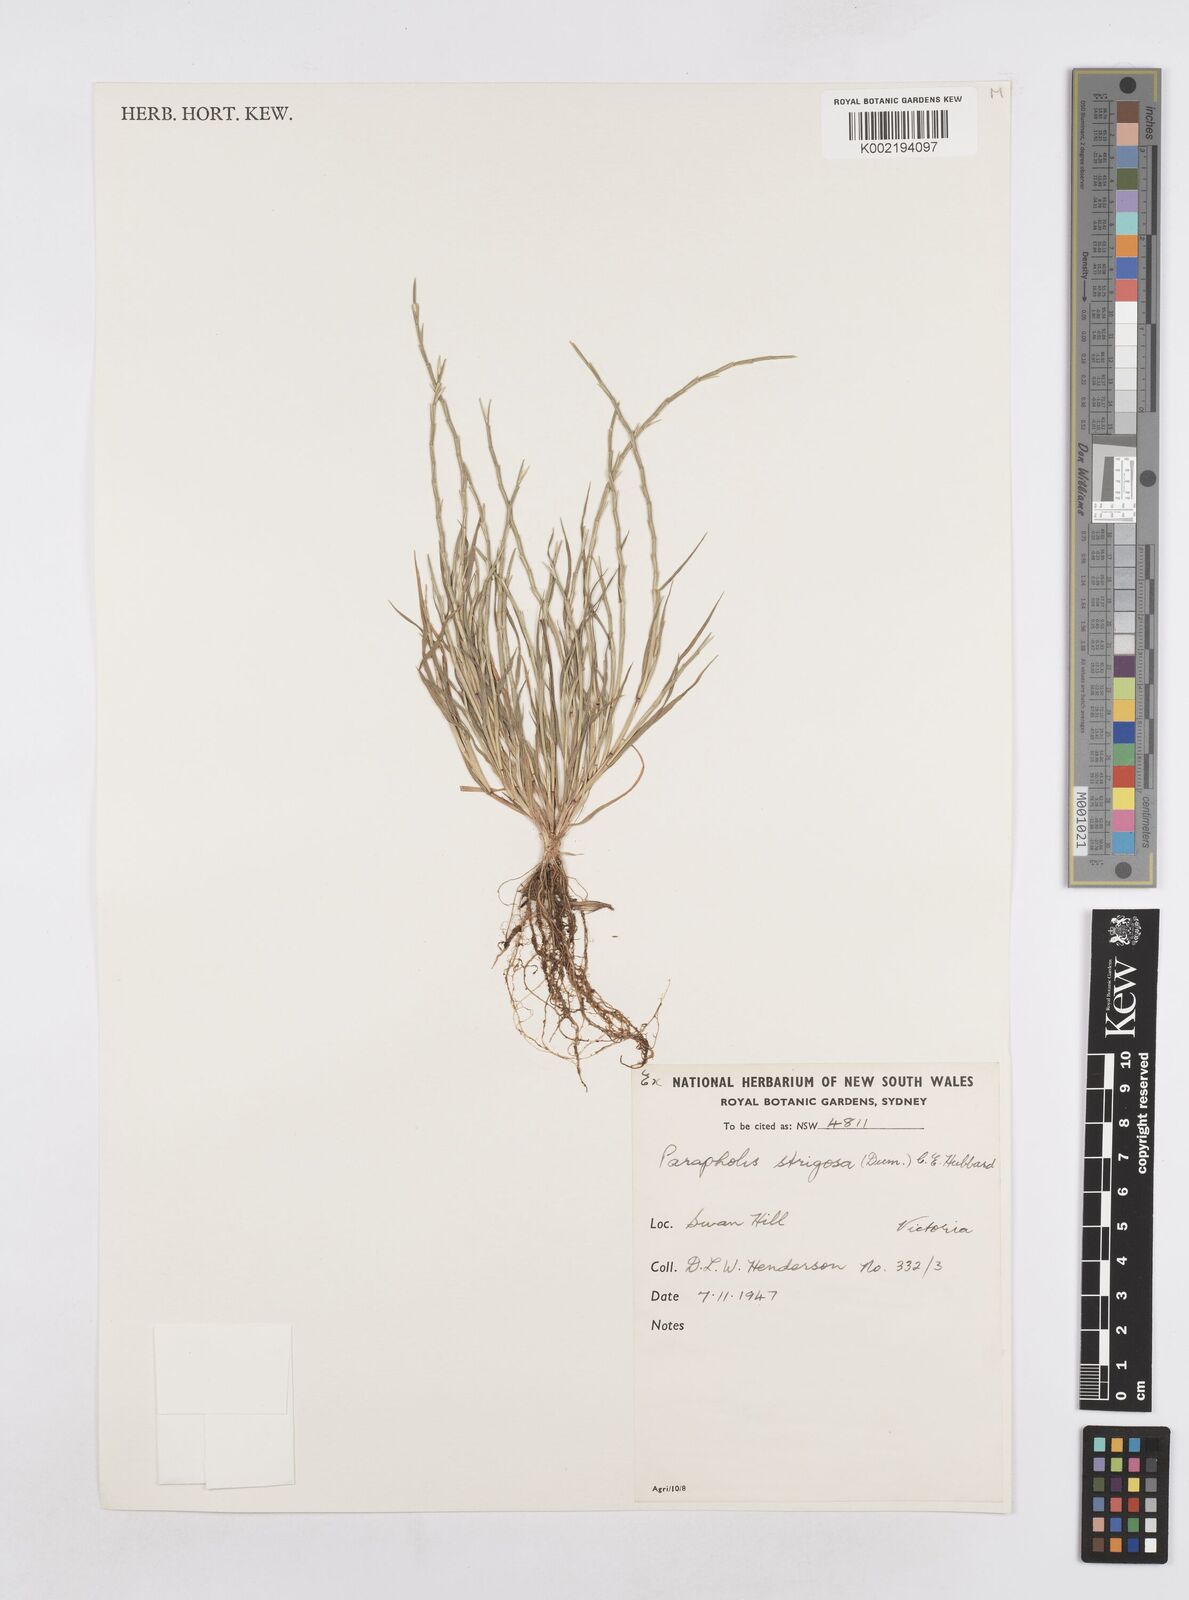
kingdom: Plantae
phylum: Tracheophyta
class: Liliopsida
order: Poales
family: Poaceae
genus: Parapholis
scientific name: Parapholis strigosa
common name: Hard-grass
